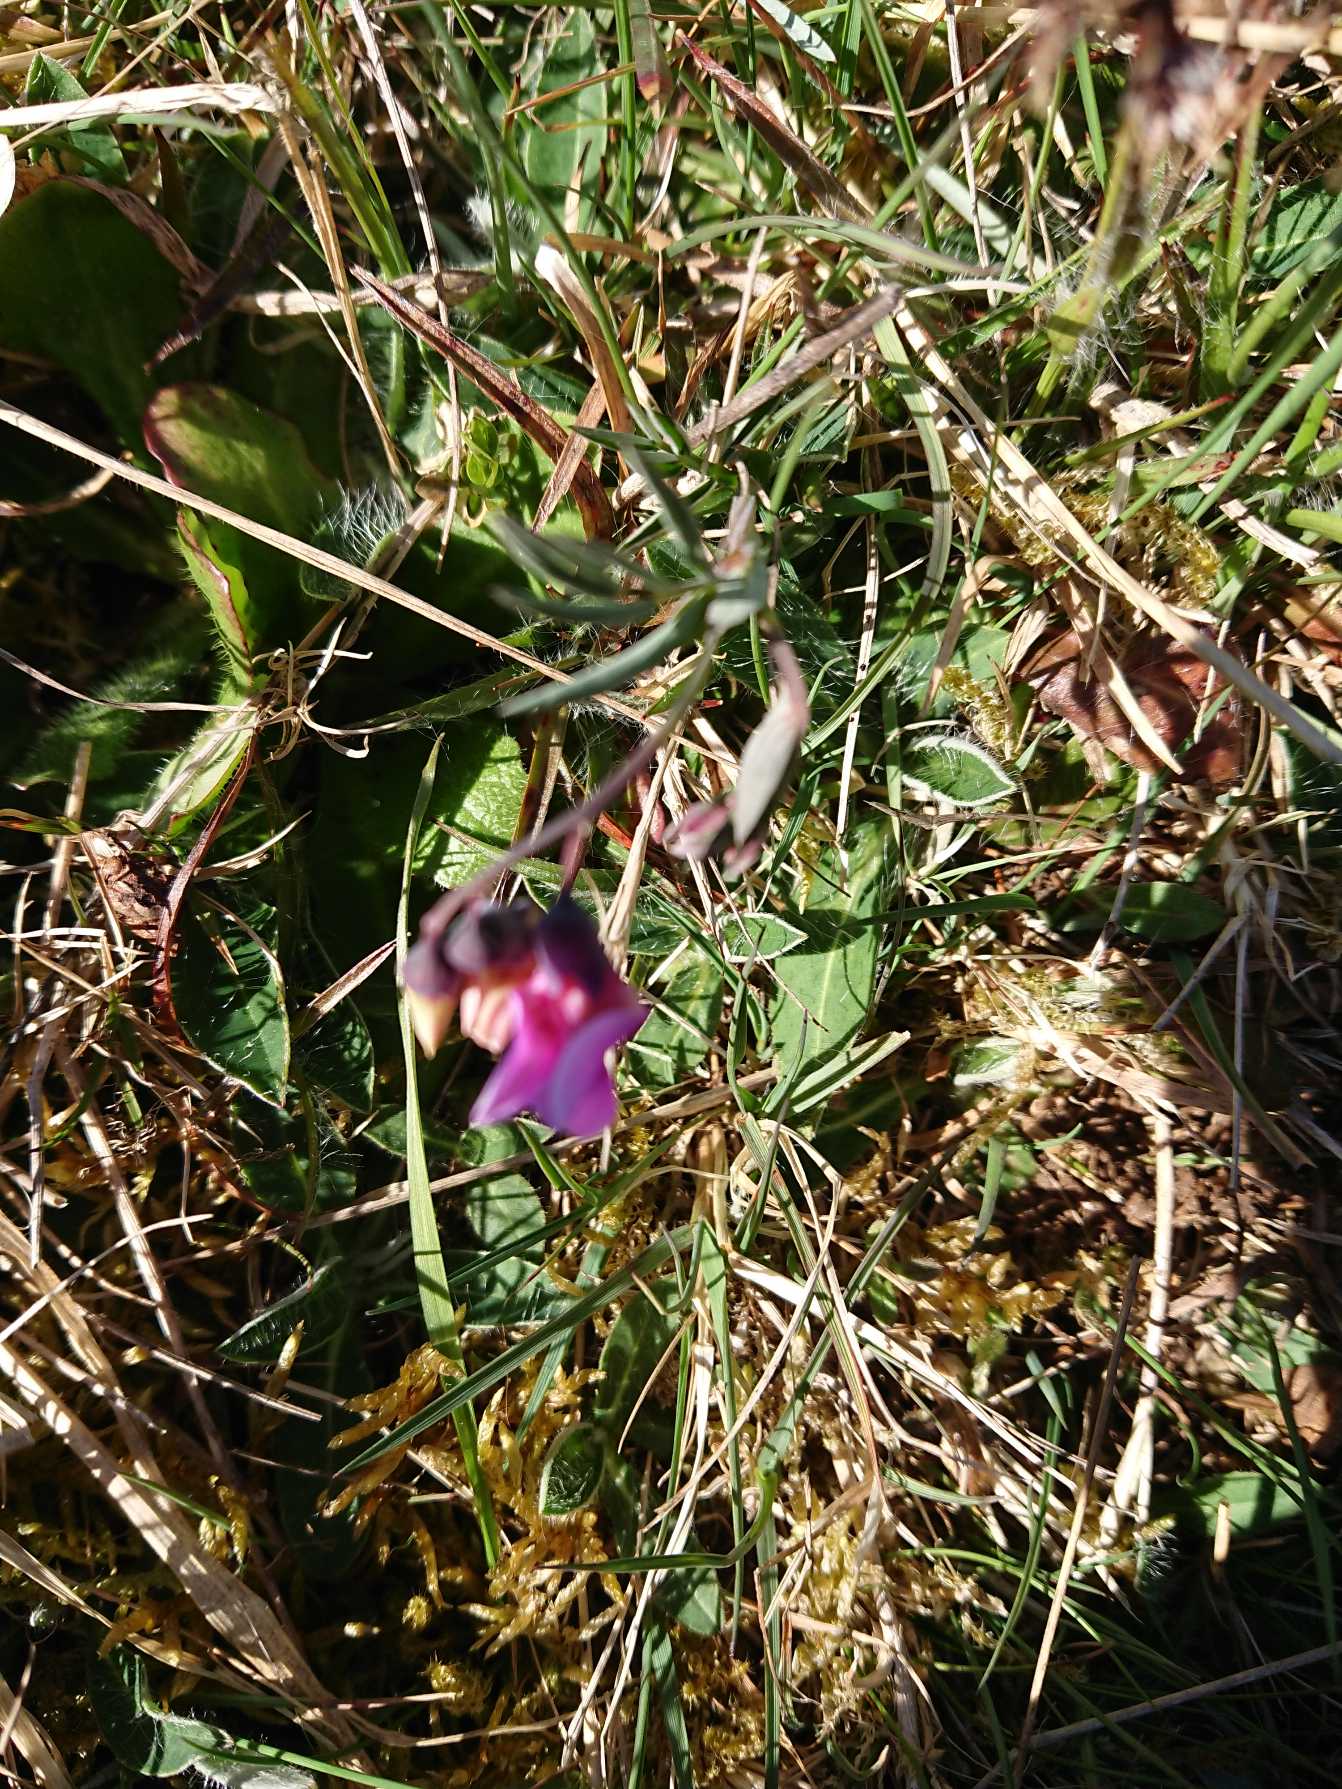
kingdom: Plantae
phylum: Tracheophyta
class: Magnoliopsida
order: Fabales
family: Fabaceae
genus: Lathyrus
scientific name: Lathyrus linifolius
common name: Krat-fladbælg
